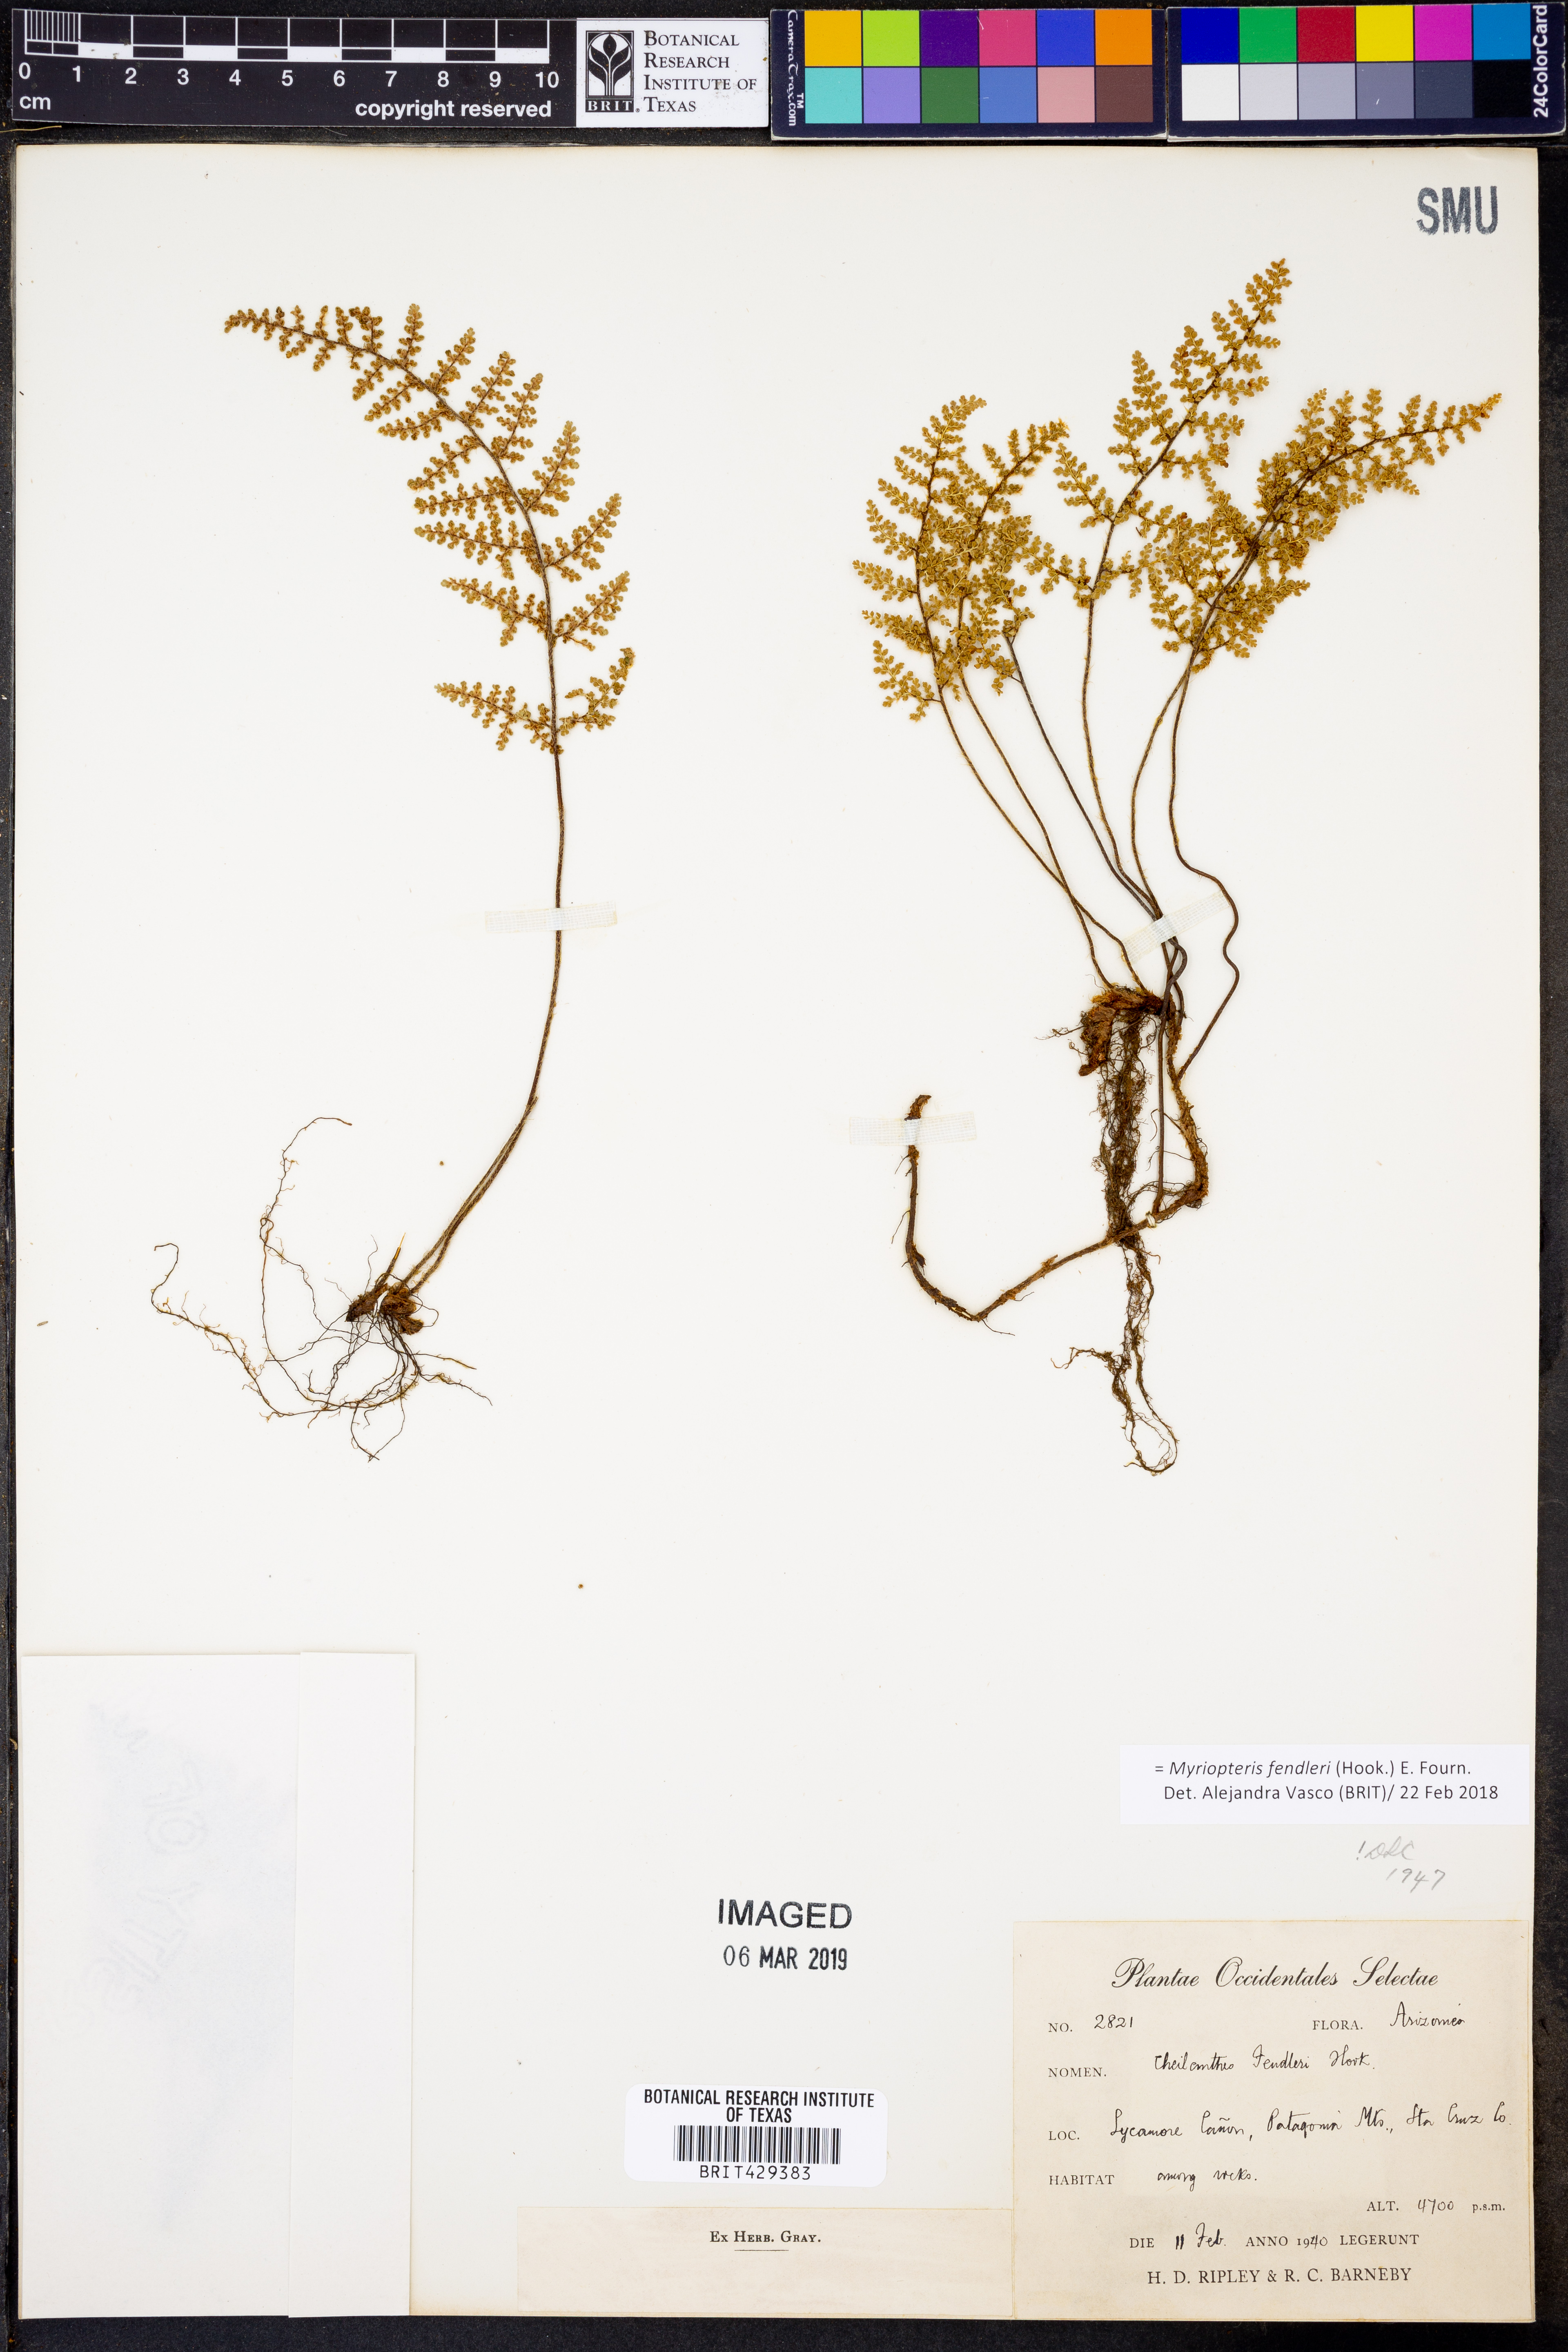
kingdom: Plantae
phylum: Tracheophyta
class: Polypodiopsida
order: Polypodiales
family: Pteridaceae
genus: Myriopteris
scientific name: Myriopteris fendleri
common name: Fendler's lip fern
